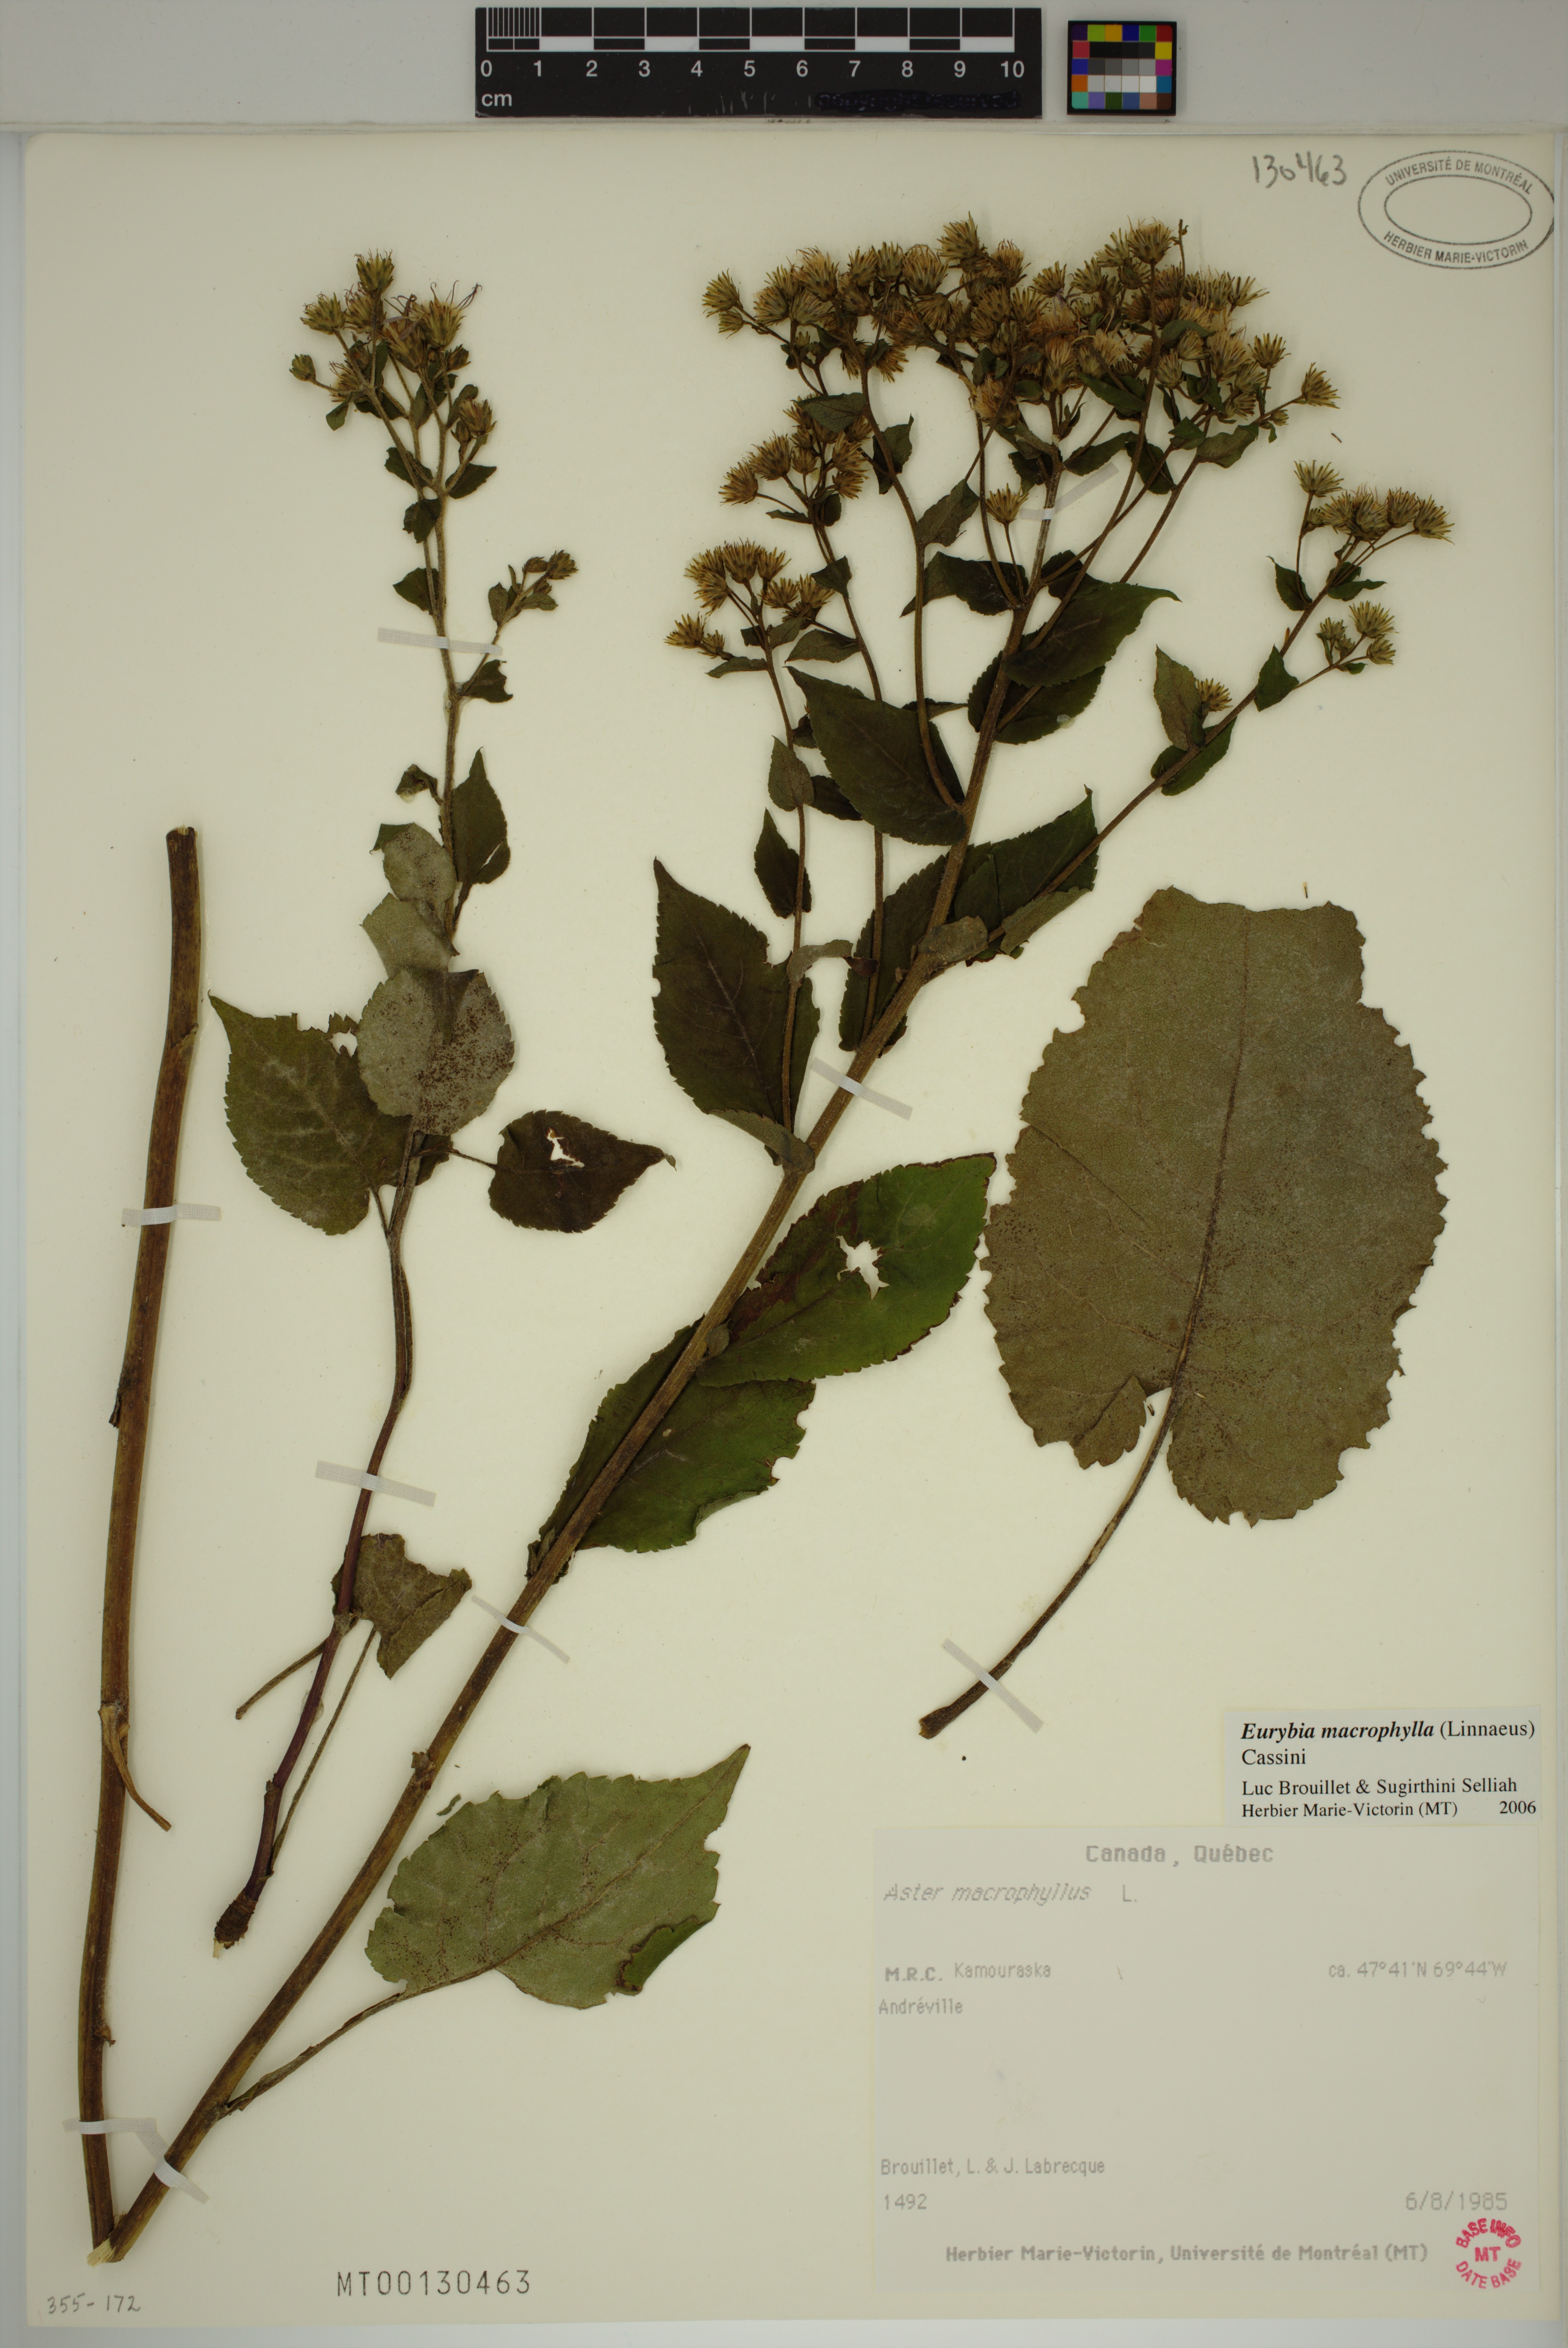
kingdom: Plantae
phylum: Tracheophyta
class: Magnoliopsida
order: Asterales
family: Asteraceae
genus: Eurybia
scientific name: Eurybia macrophylla
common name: Big-leaved aster
